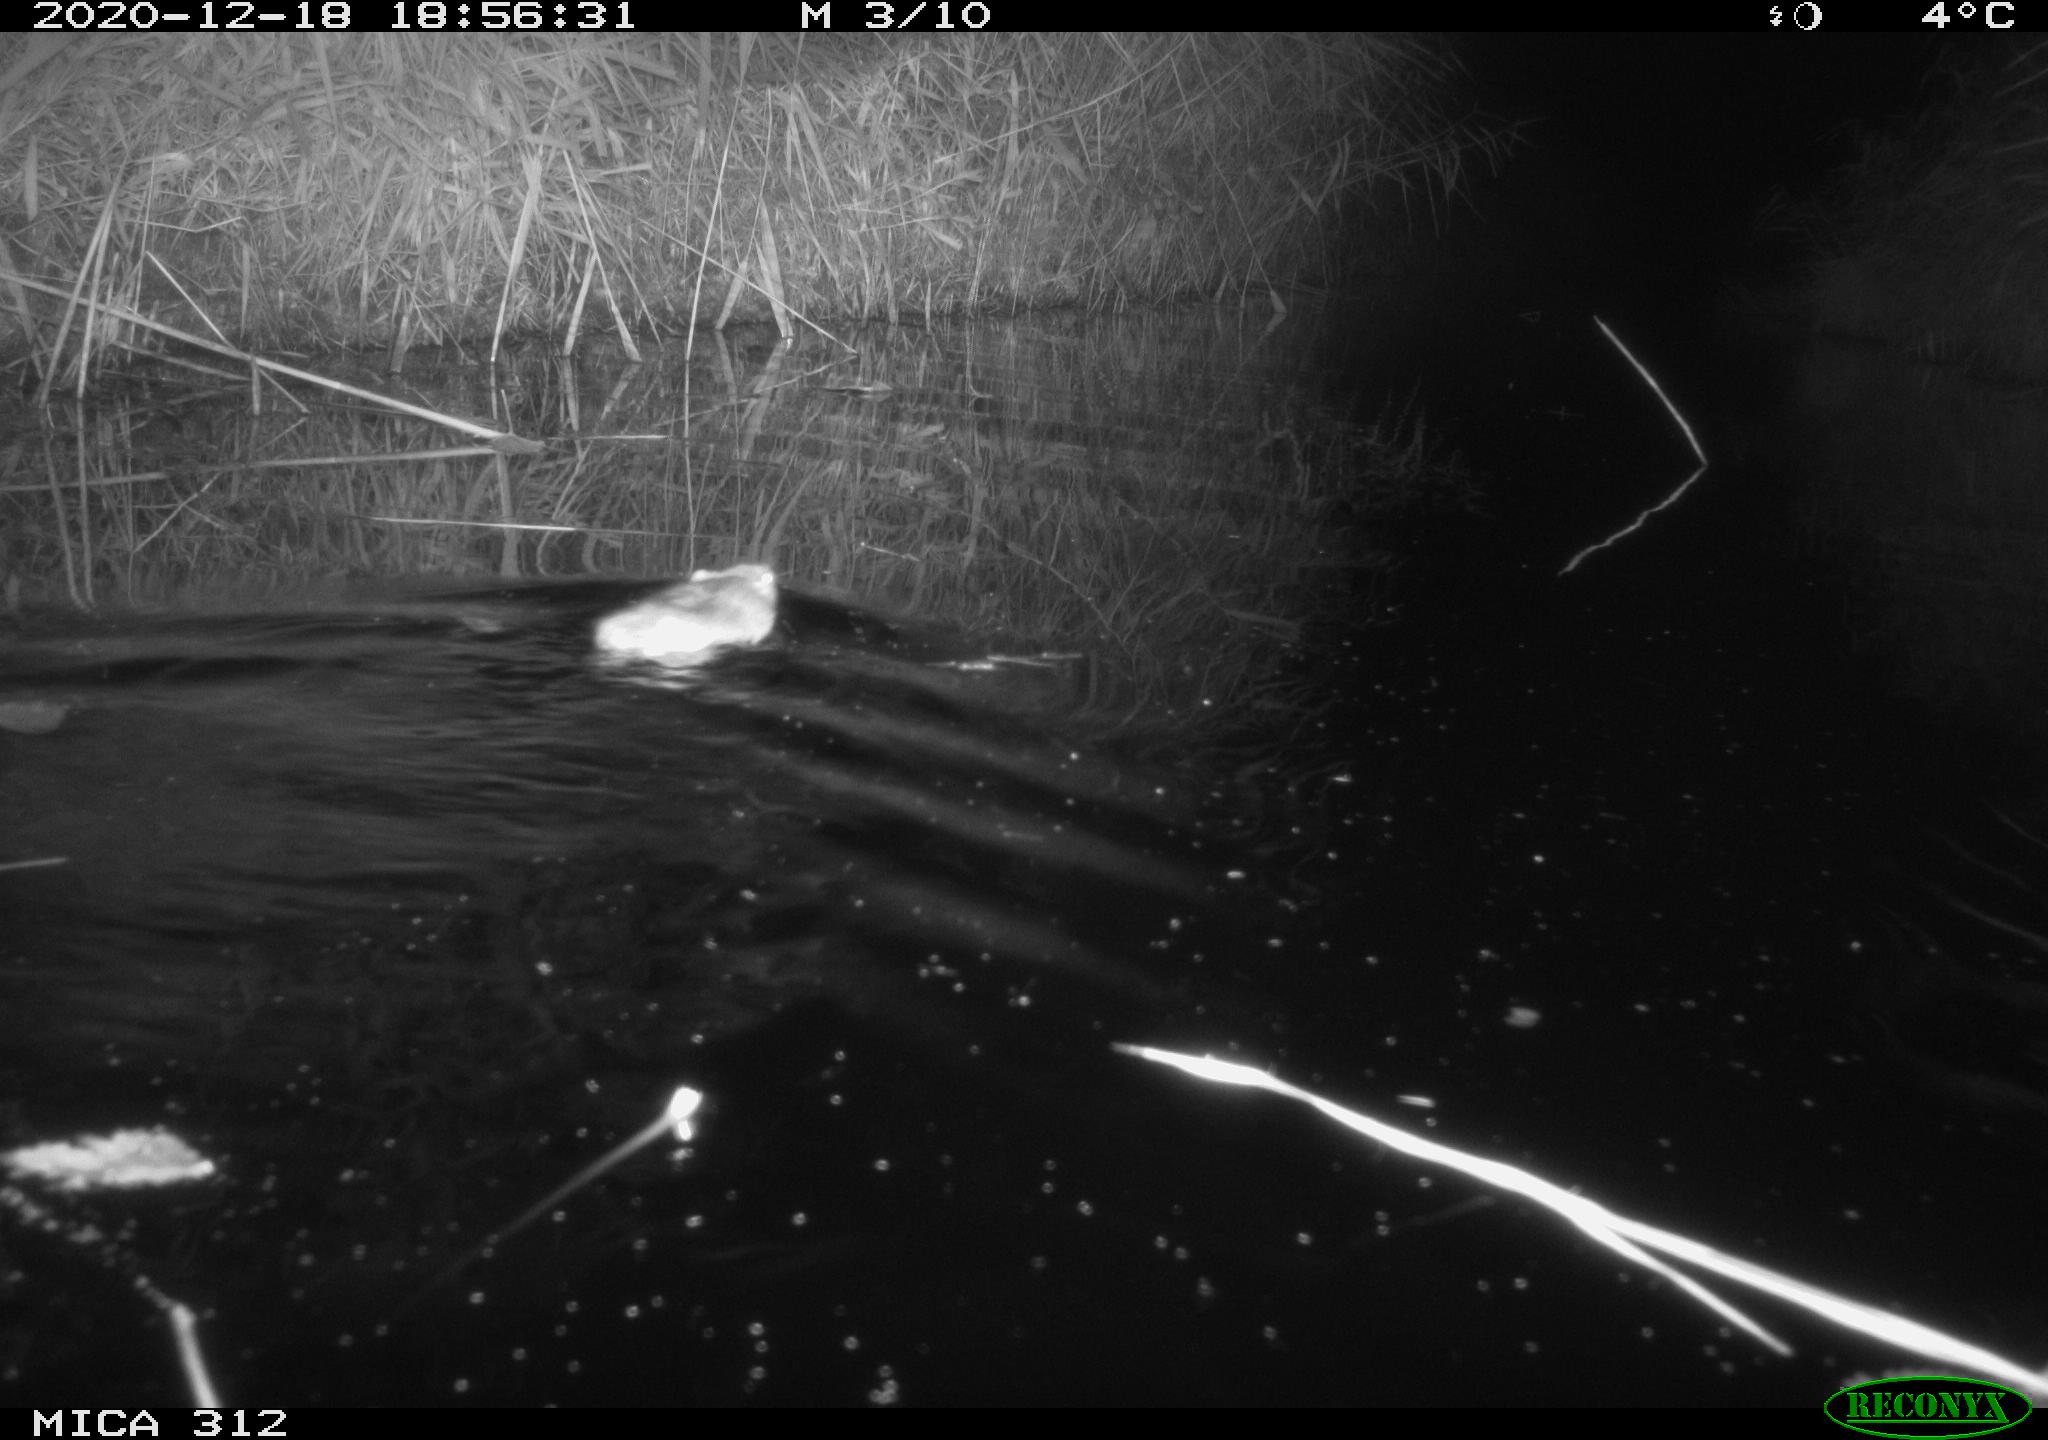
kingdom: Animalia
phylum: Chordata
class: Mammalia
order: Rodentia
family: Muridae
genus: Rattus
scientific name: Rattus norvegicus
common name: Brown rat
